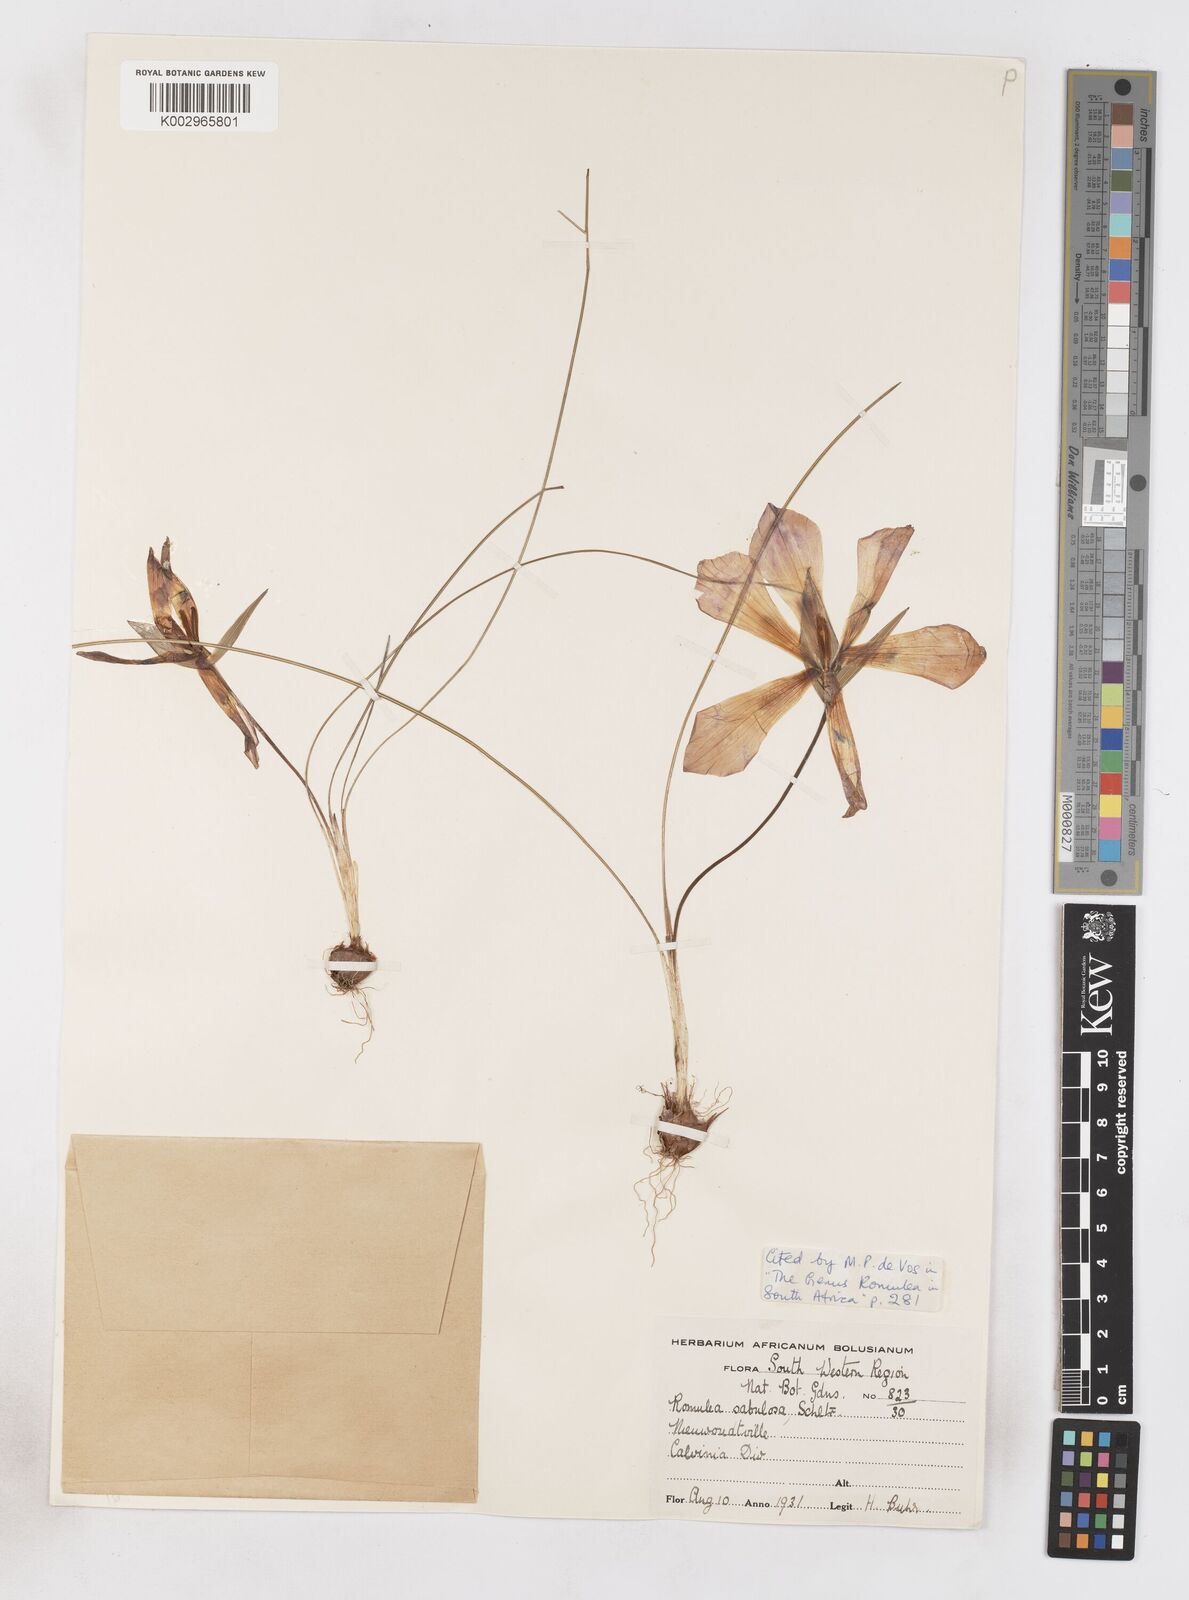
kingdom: Plantae
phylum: Tracheophyta
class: Liliopsida
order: Asparagales
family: Iridaceae
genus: Romulea
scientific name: Romulea sabulosa
